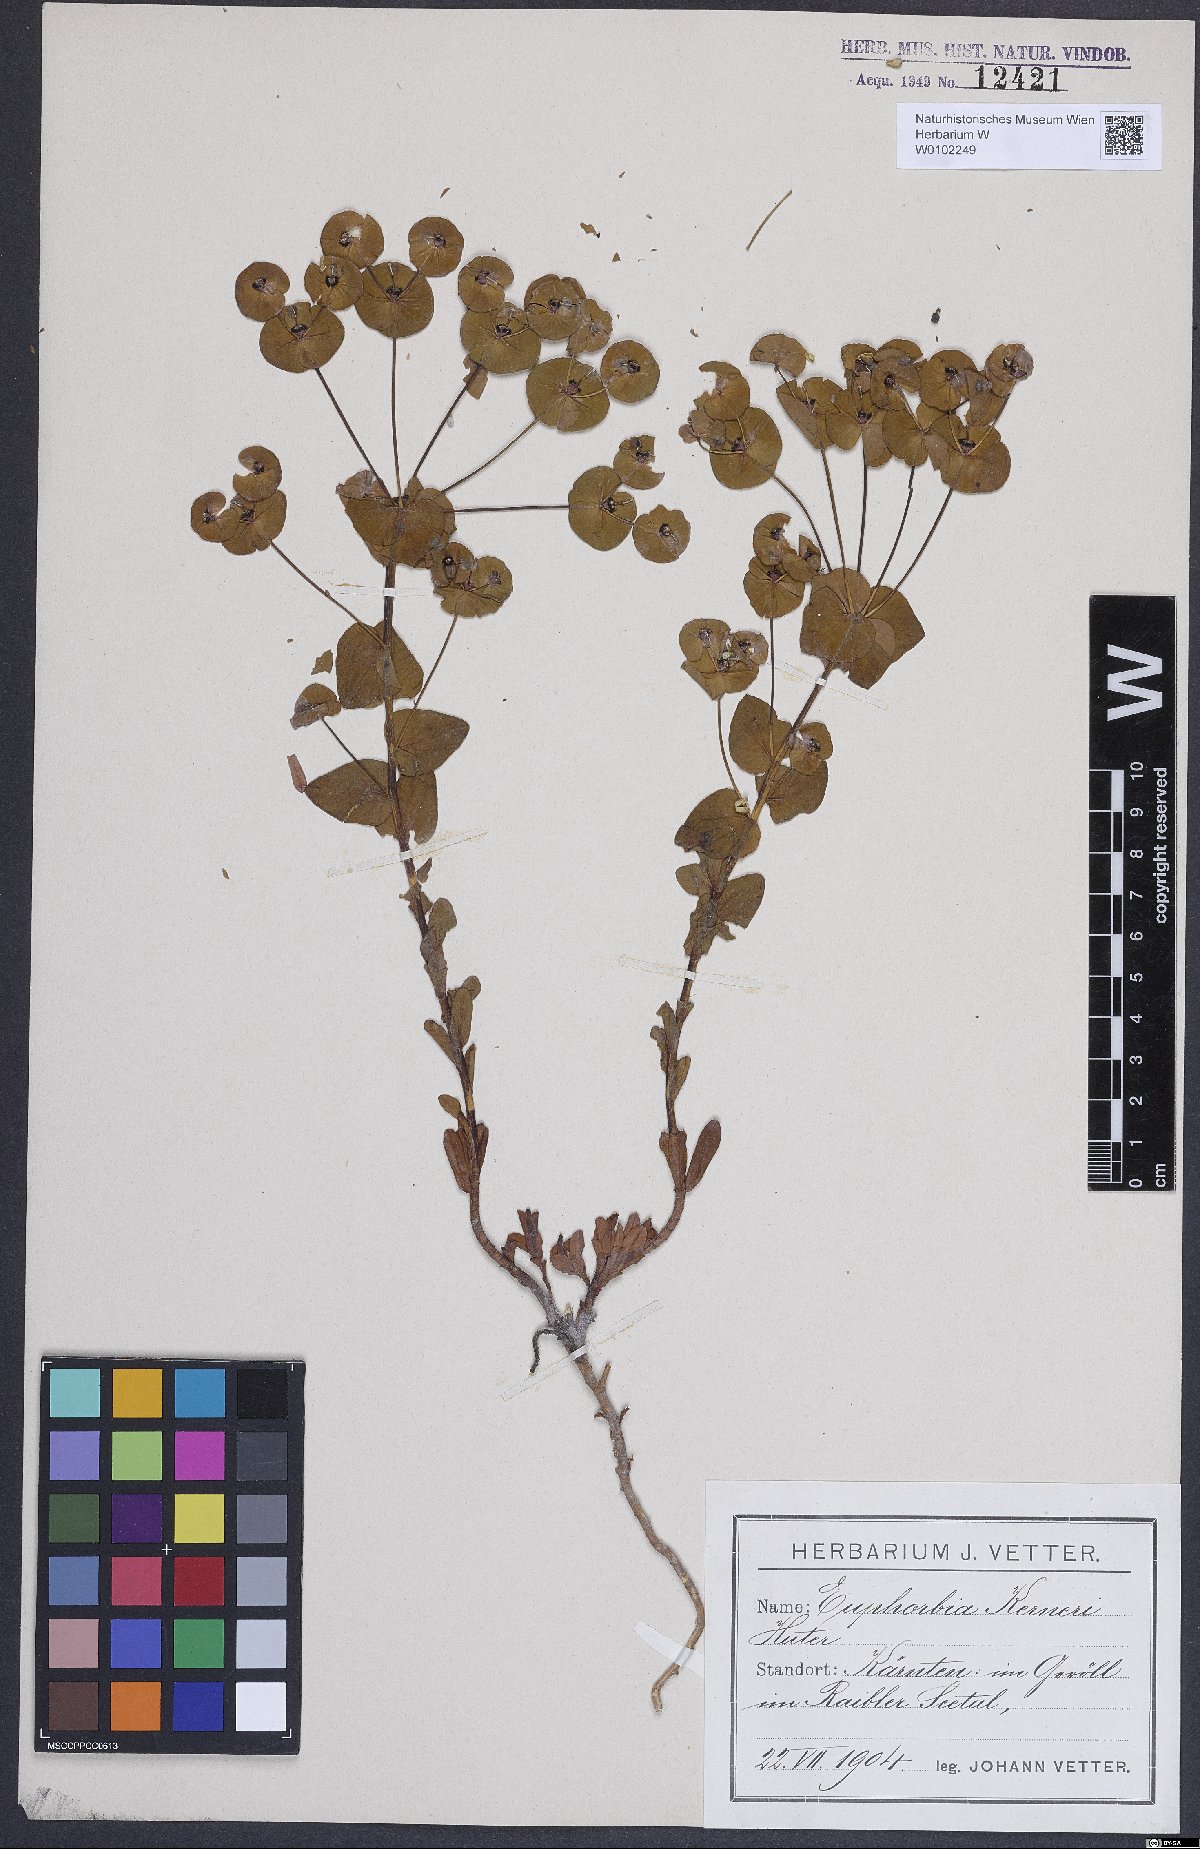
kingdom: Plantae
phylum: Tracheophyta
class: Magnoliopsida
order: Malpighiales
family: Euphorbiaceae
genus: Euphorbia
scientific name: Euphorbia kerneri
